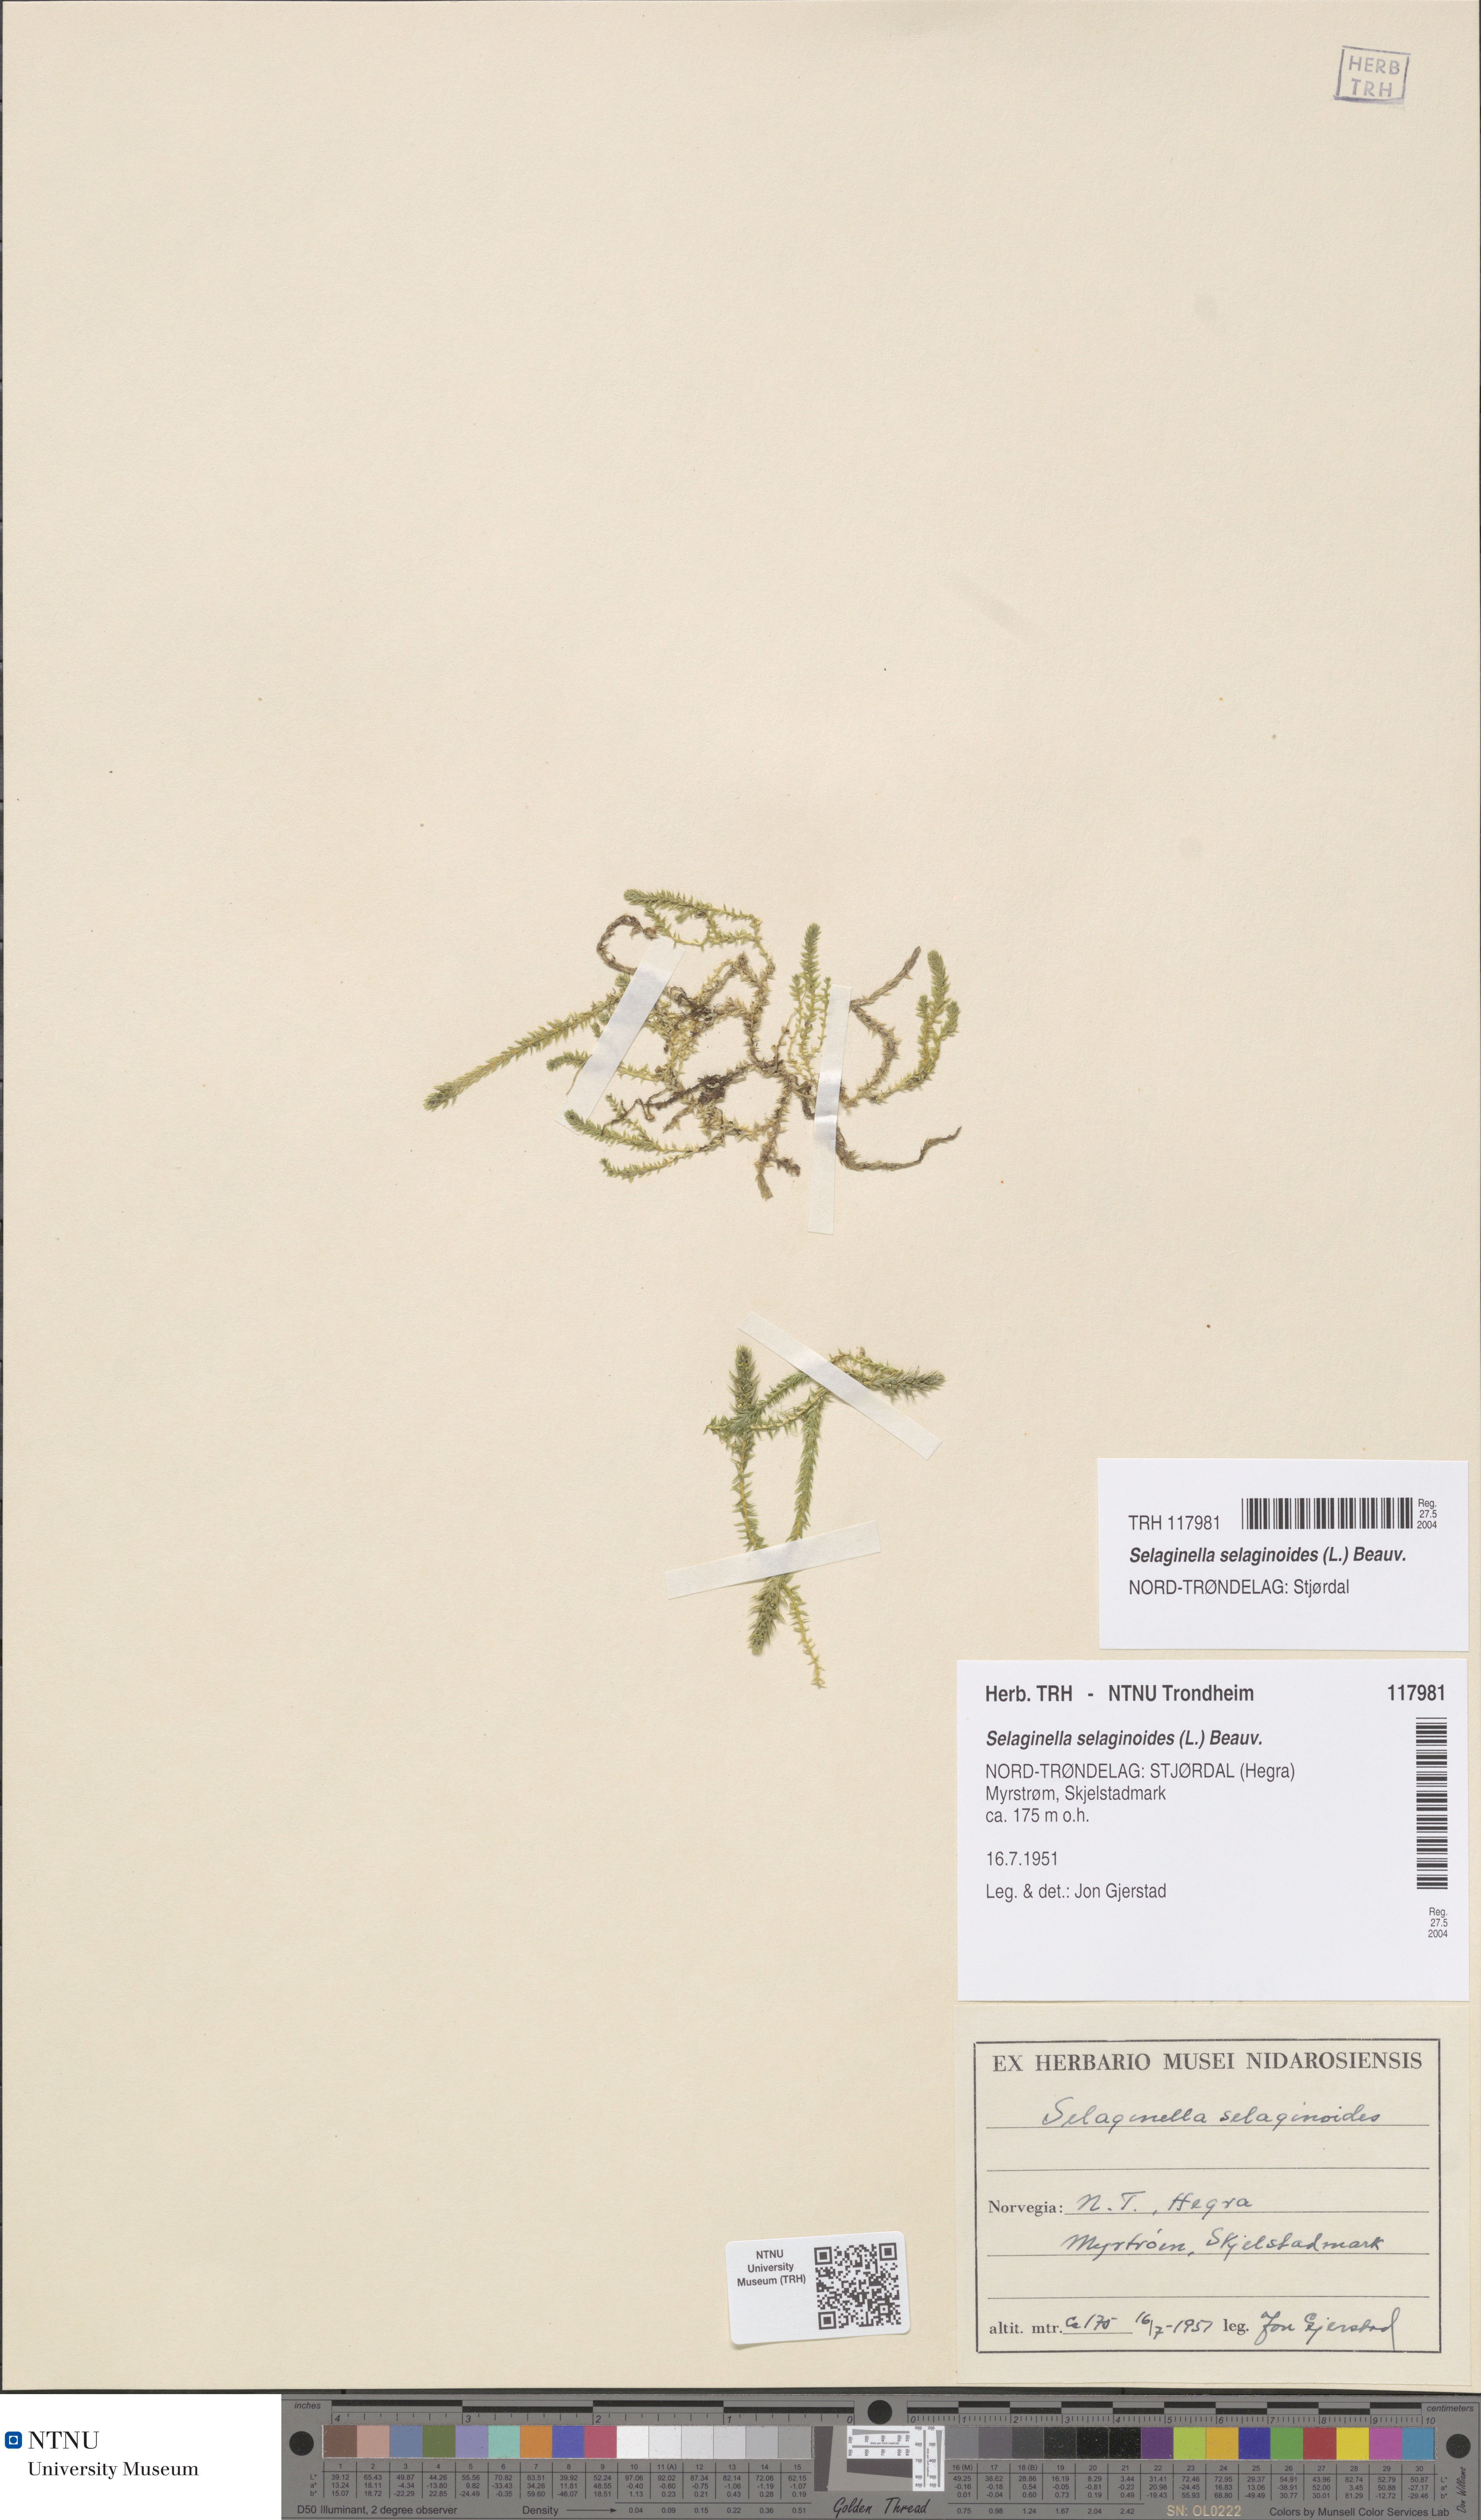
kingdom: Plantae
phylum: Tracheophyta
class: Lycopodiopsida
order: Selaginellales
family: Selaginellaceae
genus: Selaginella
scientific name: Selaginella selaginoides
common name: Prickly mountain-moss
